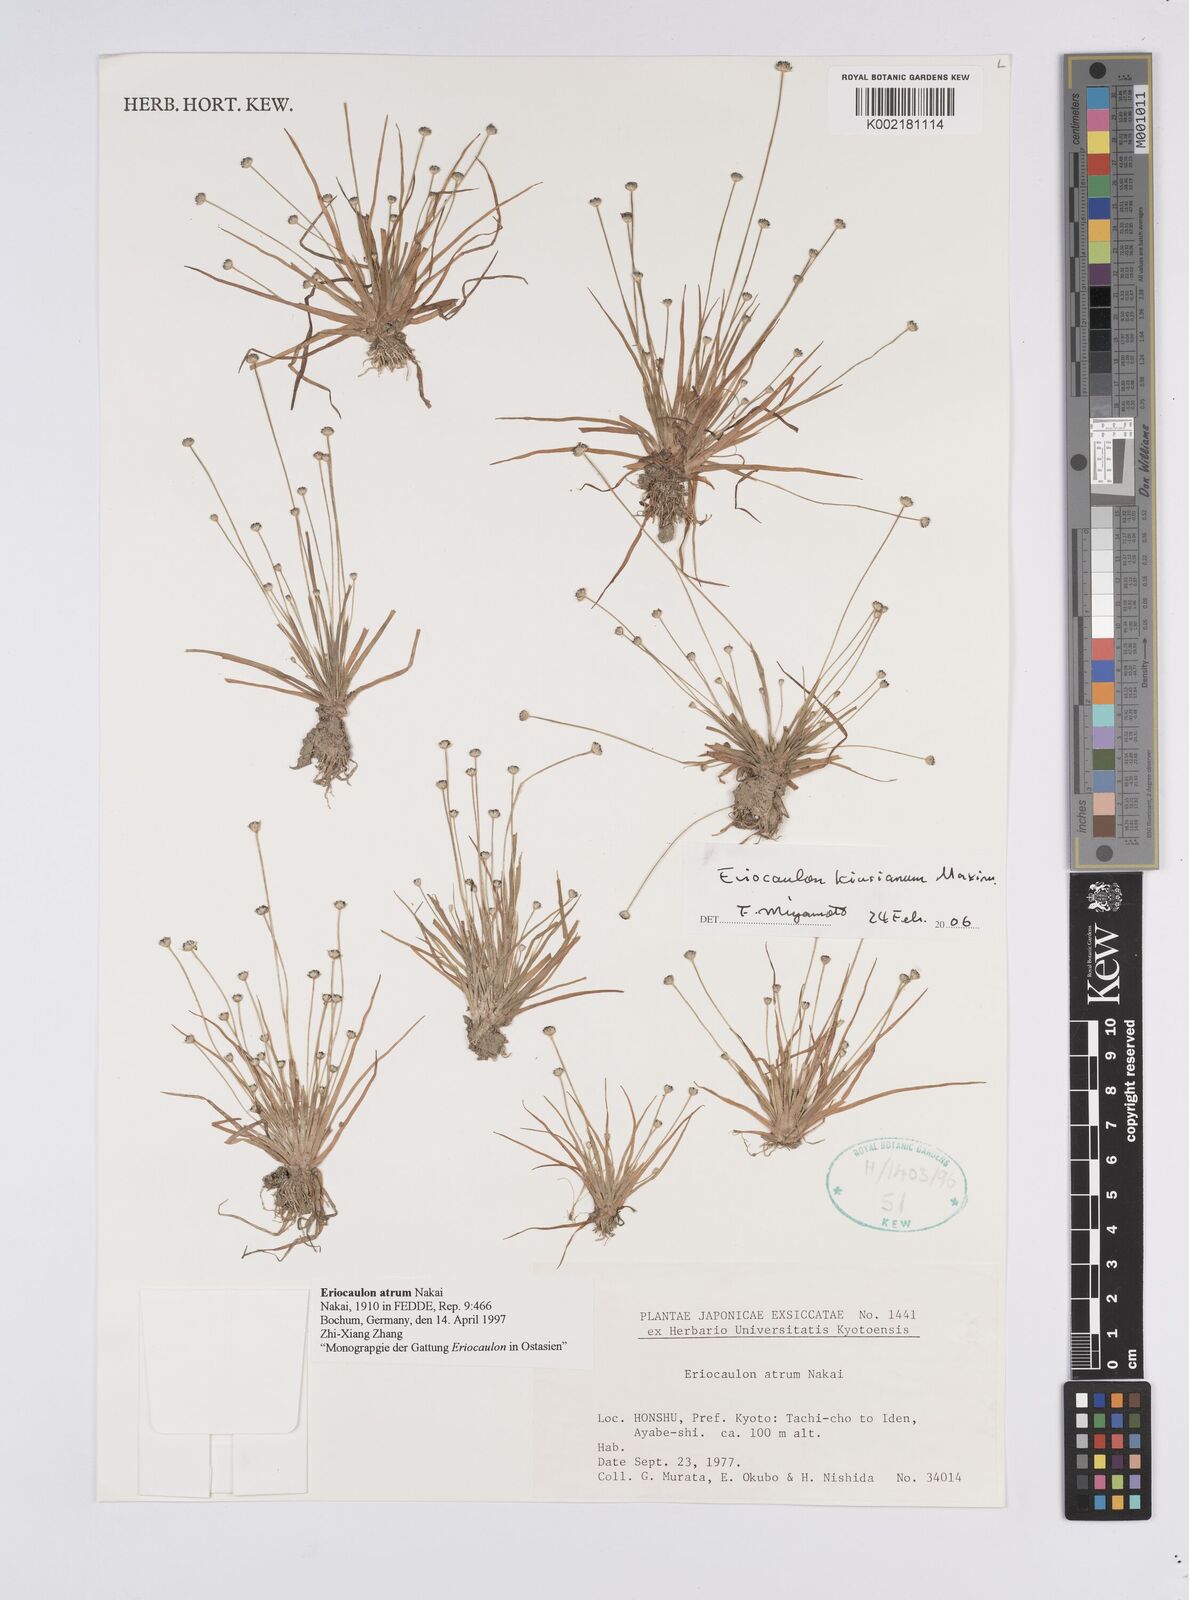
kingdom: Plantae
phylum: Tracheophyta
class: Liliopsida
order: Poales
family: Eriocaulaceae
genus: Eriocaulon
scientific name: Eriocaulon atrum
